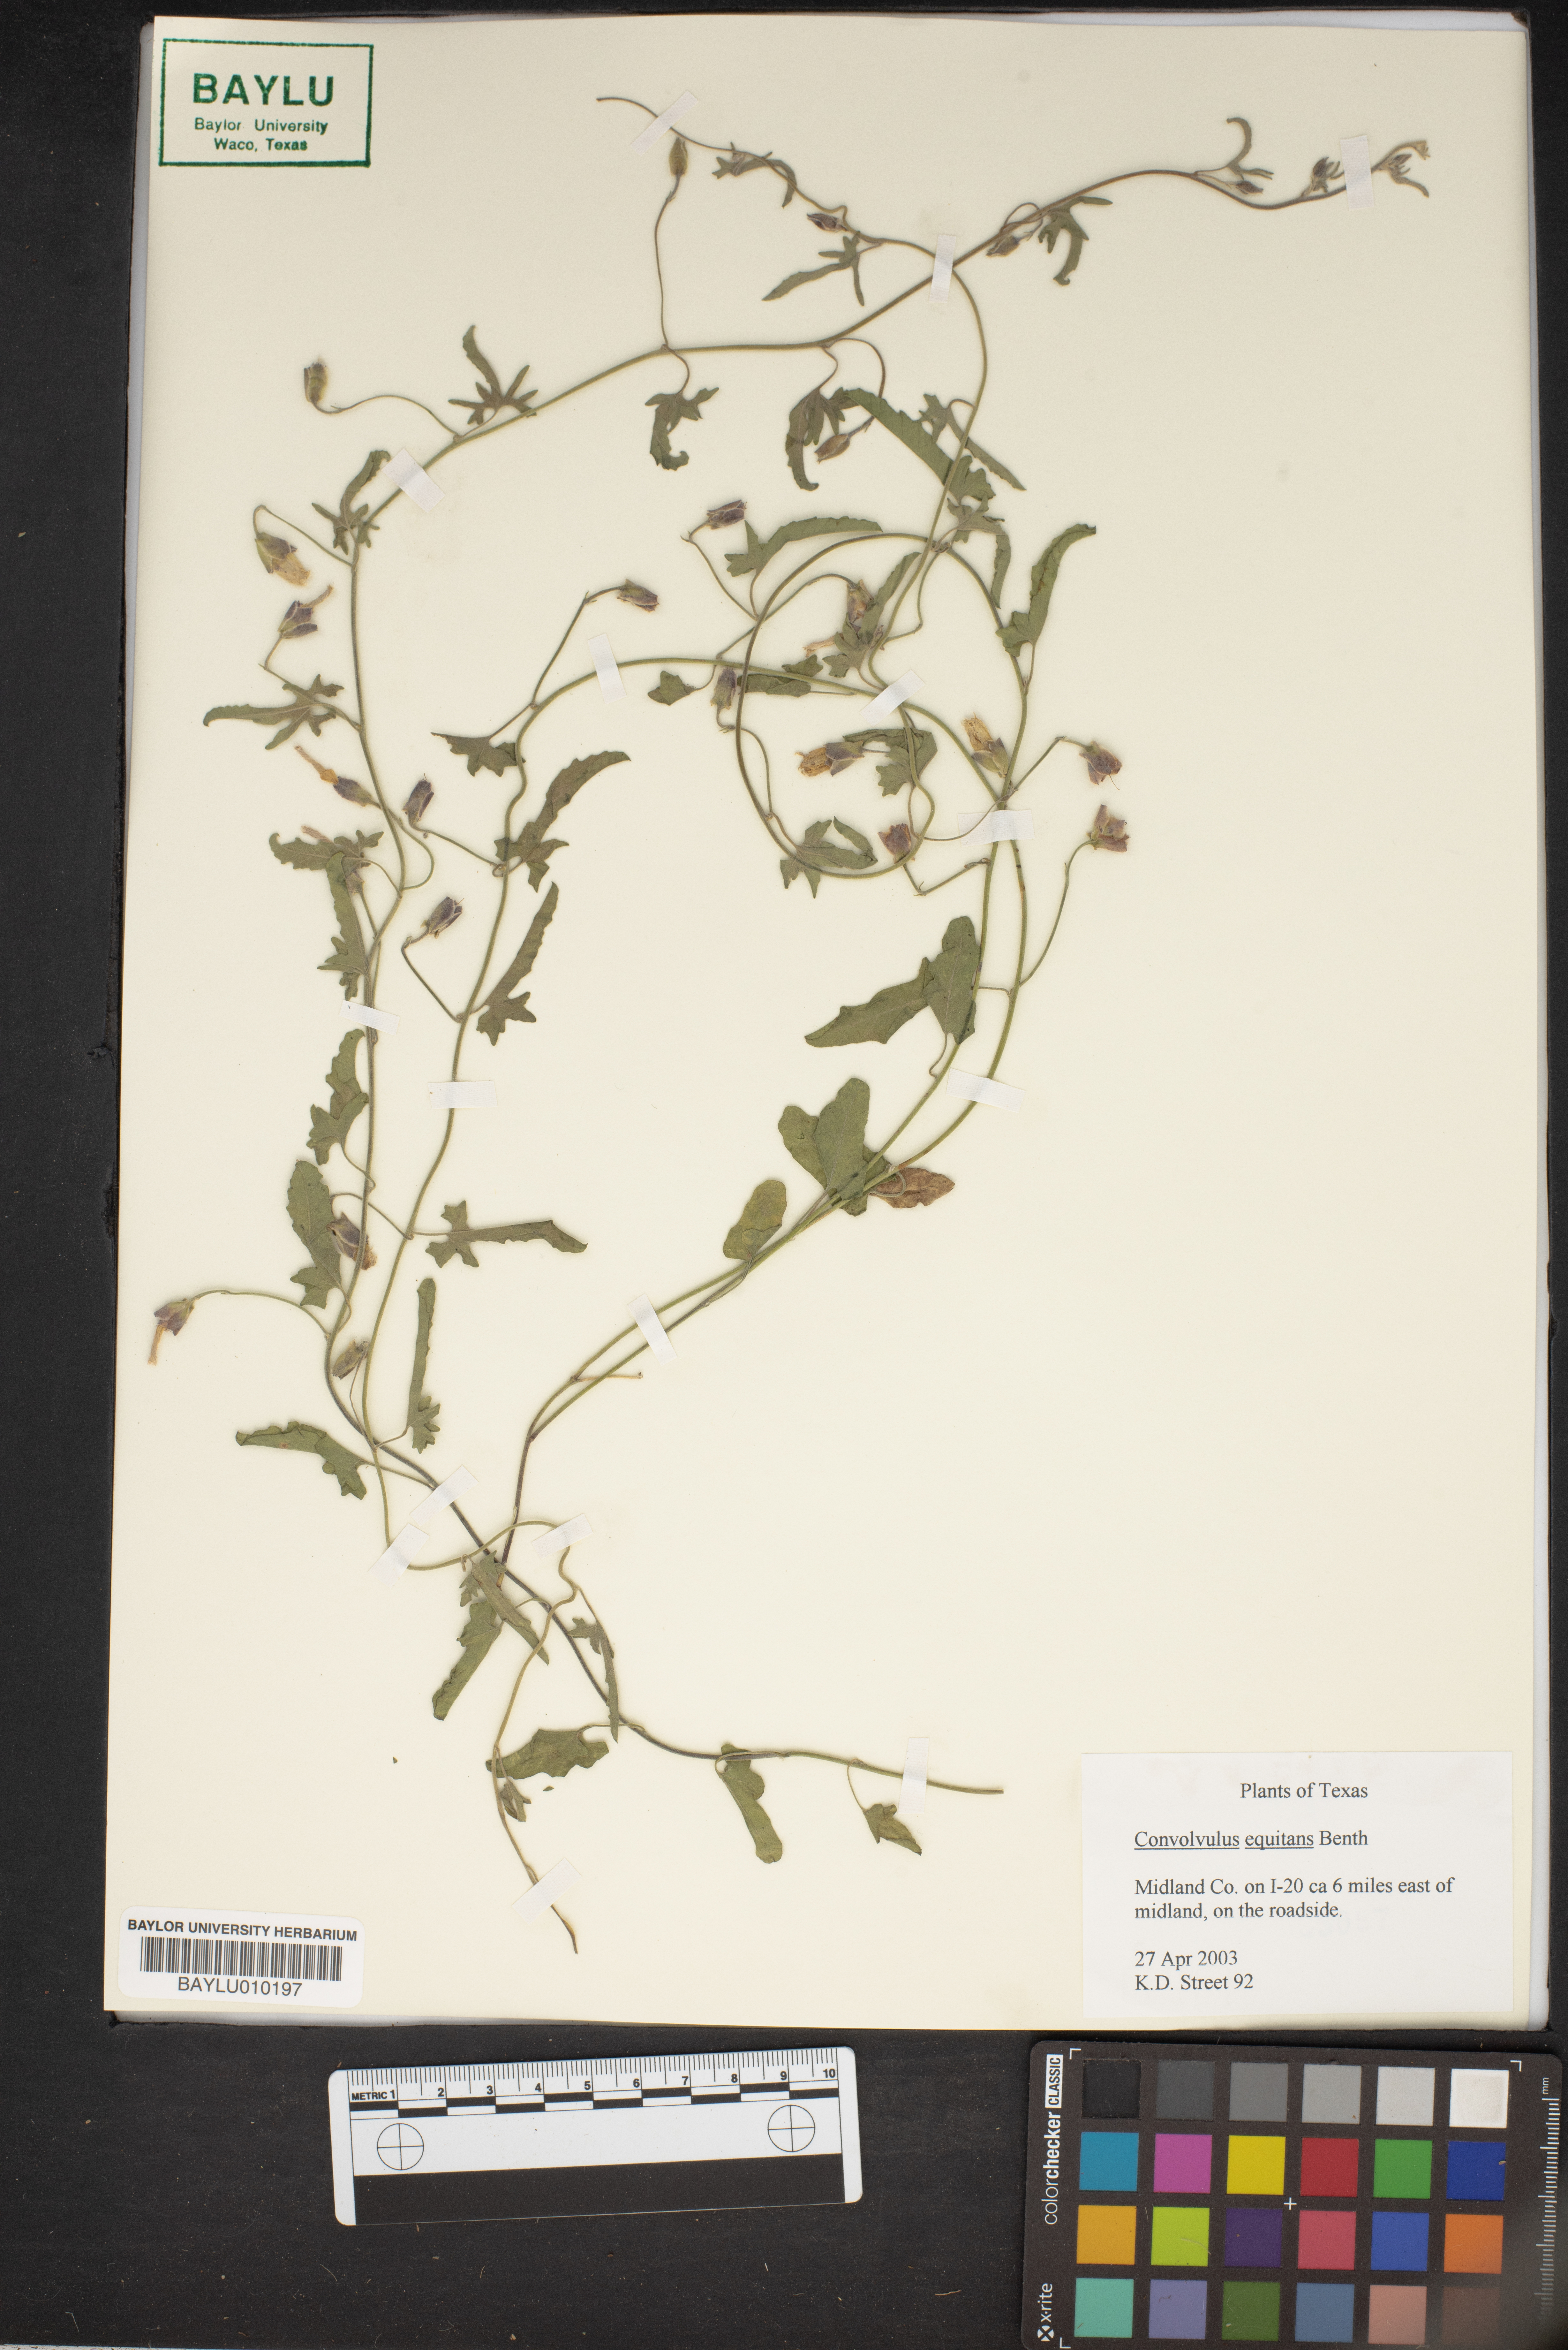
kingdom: Plantae
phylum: Tracheophyta
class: Magnoliopsida
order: Solanales
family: Convolvulaceae
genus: Convolvulus
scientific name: Convolvulus equitans
